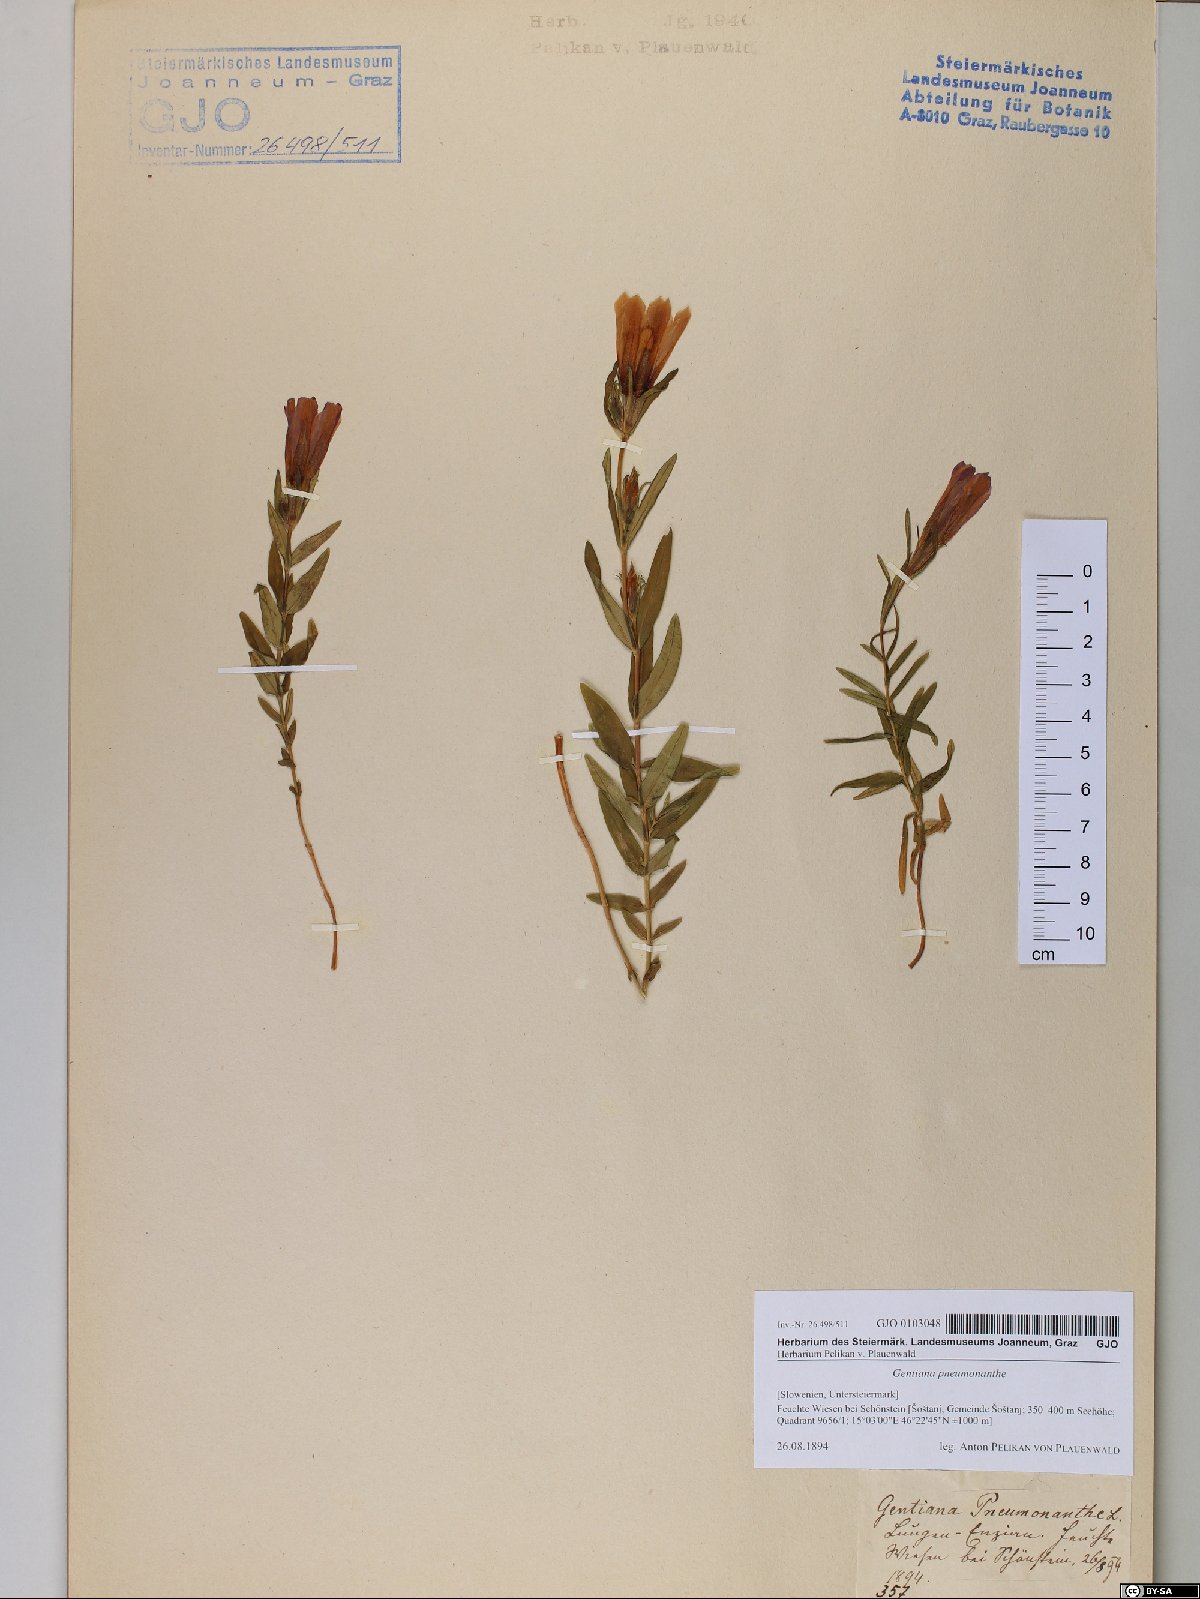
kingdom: Plantae
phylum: Tracheophyta
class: Magnoliopsida
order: Gentianales
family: Gentianaceae
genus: Gentiana
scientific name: Gentiana pneumonanthe
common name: Marsh gentian
